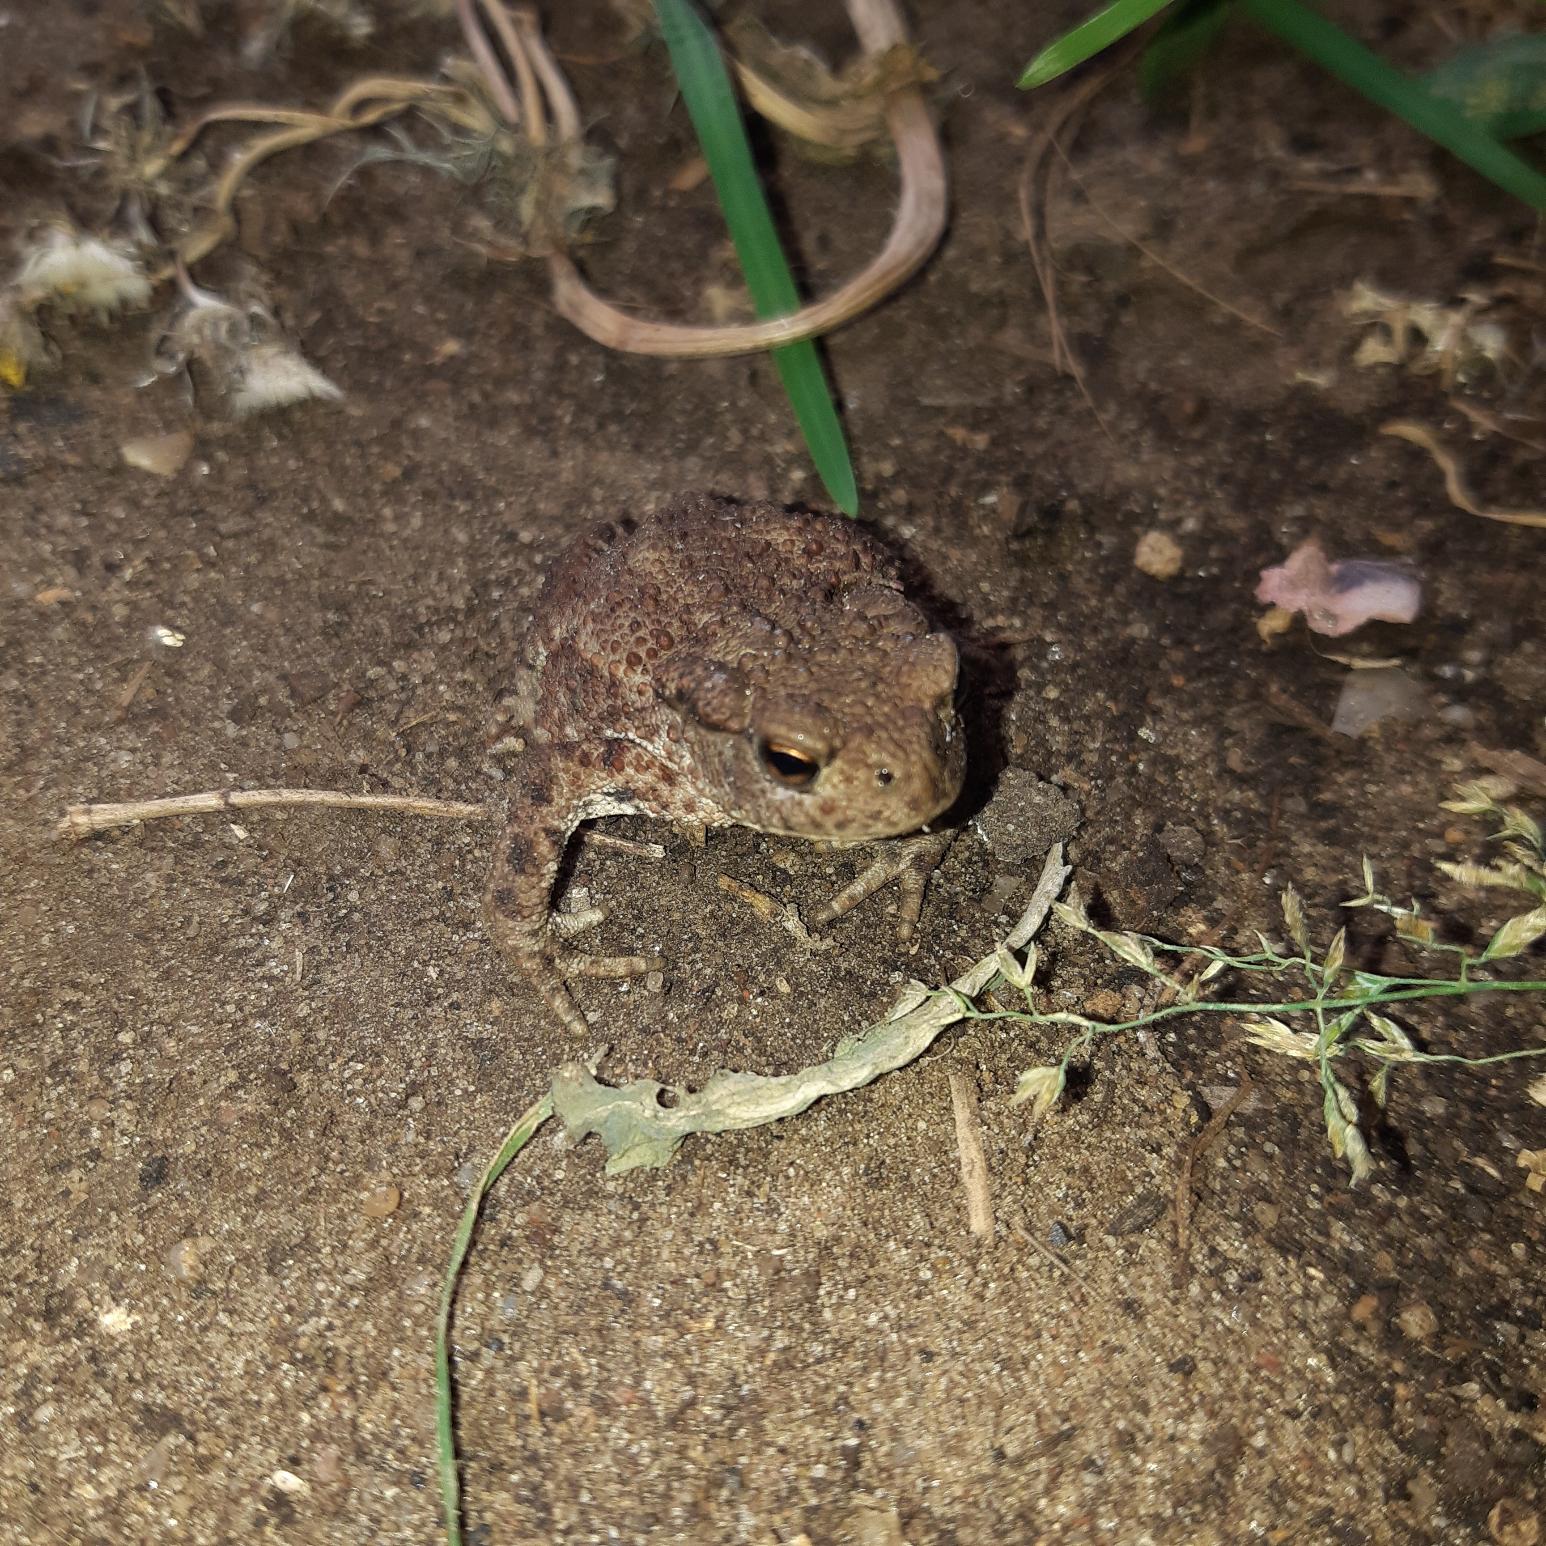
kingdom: Animalia
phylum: Chordata
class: Amphibia
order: Anura
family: Bufonidae
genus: Bufo
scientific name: Bufo bufo
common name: Skrubtudse
